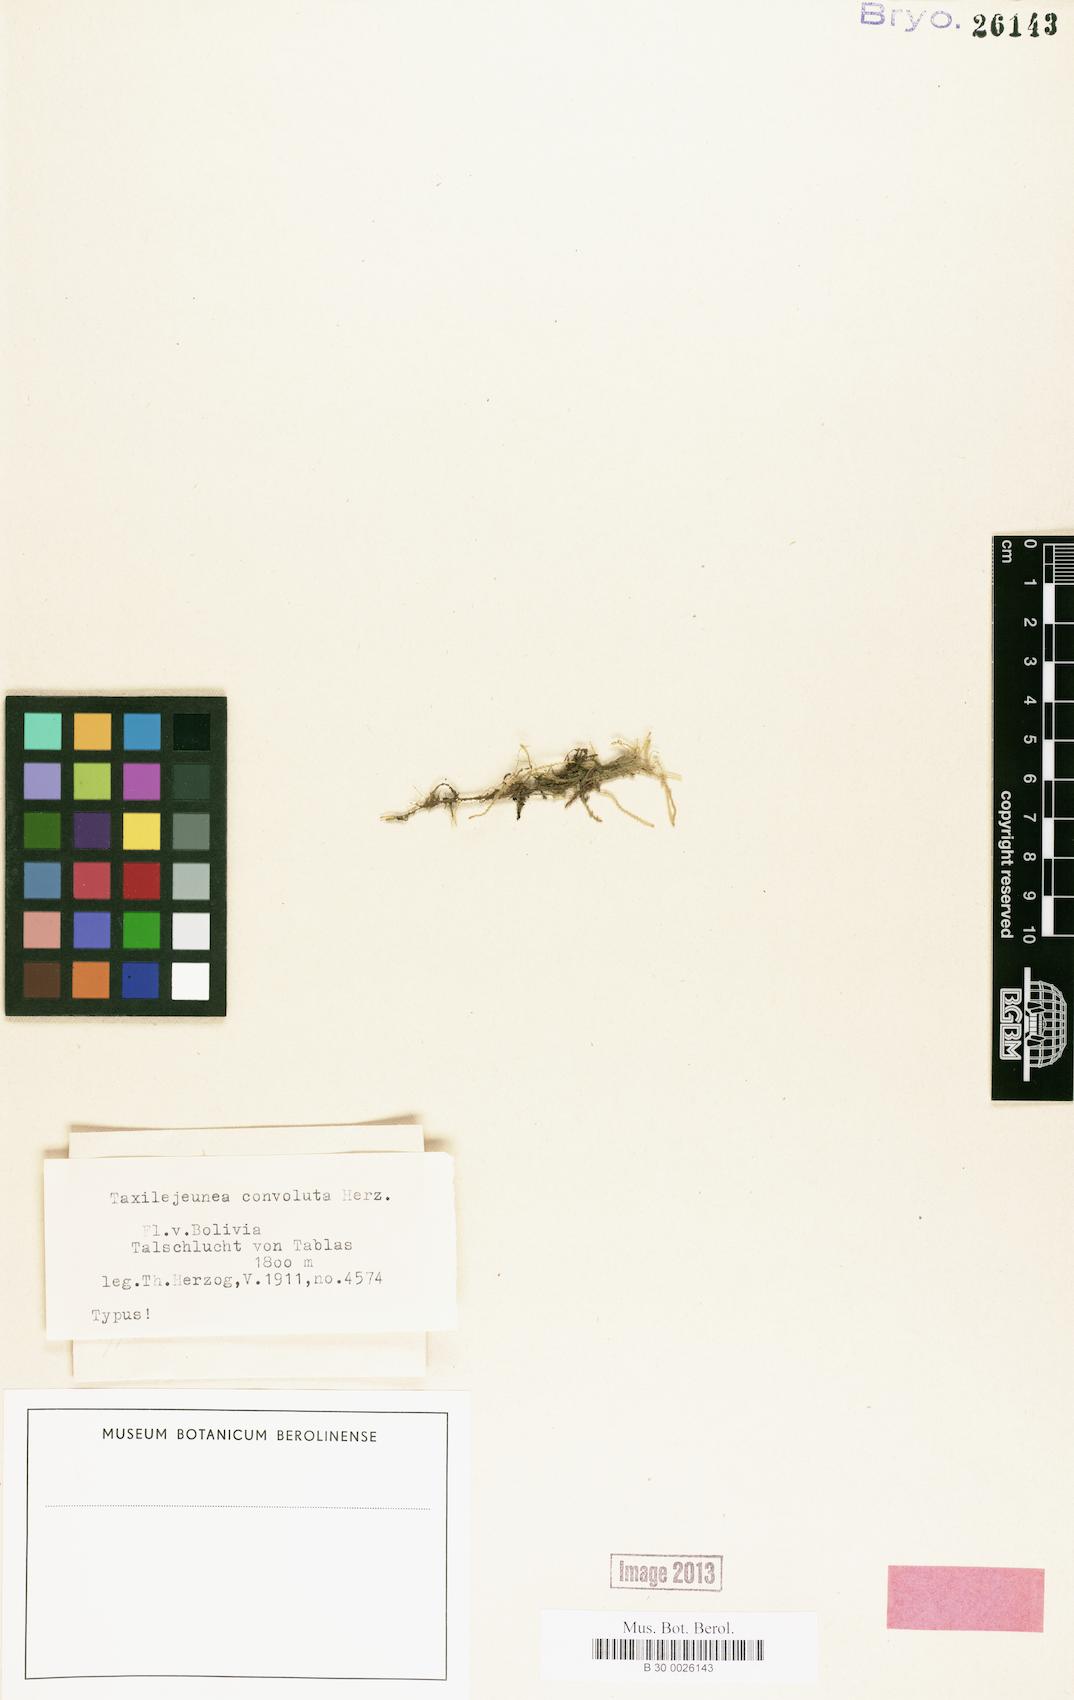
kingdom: Plantae
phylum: Marchantiophyta
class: Jungermanniopsida
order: Porellales
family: Lejeuneaceae
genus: Taxilejeunea
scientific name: Taxilejeunea convoluta
